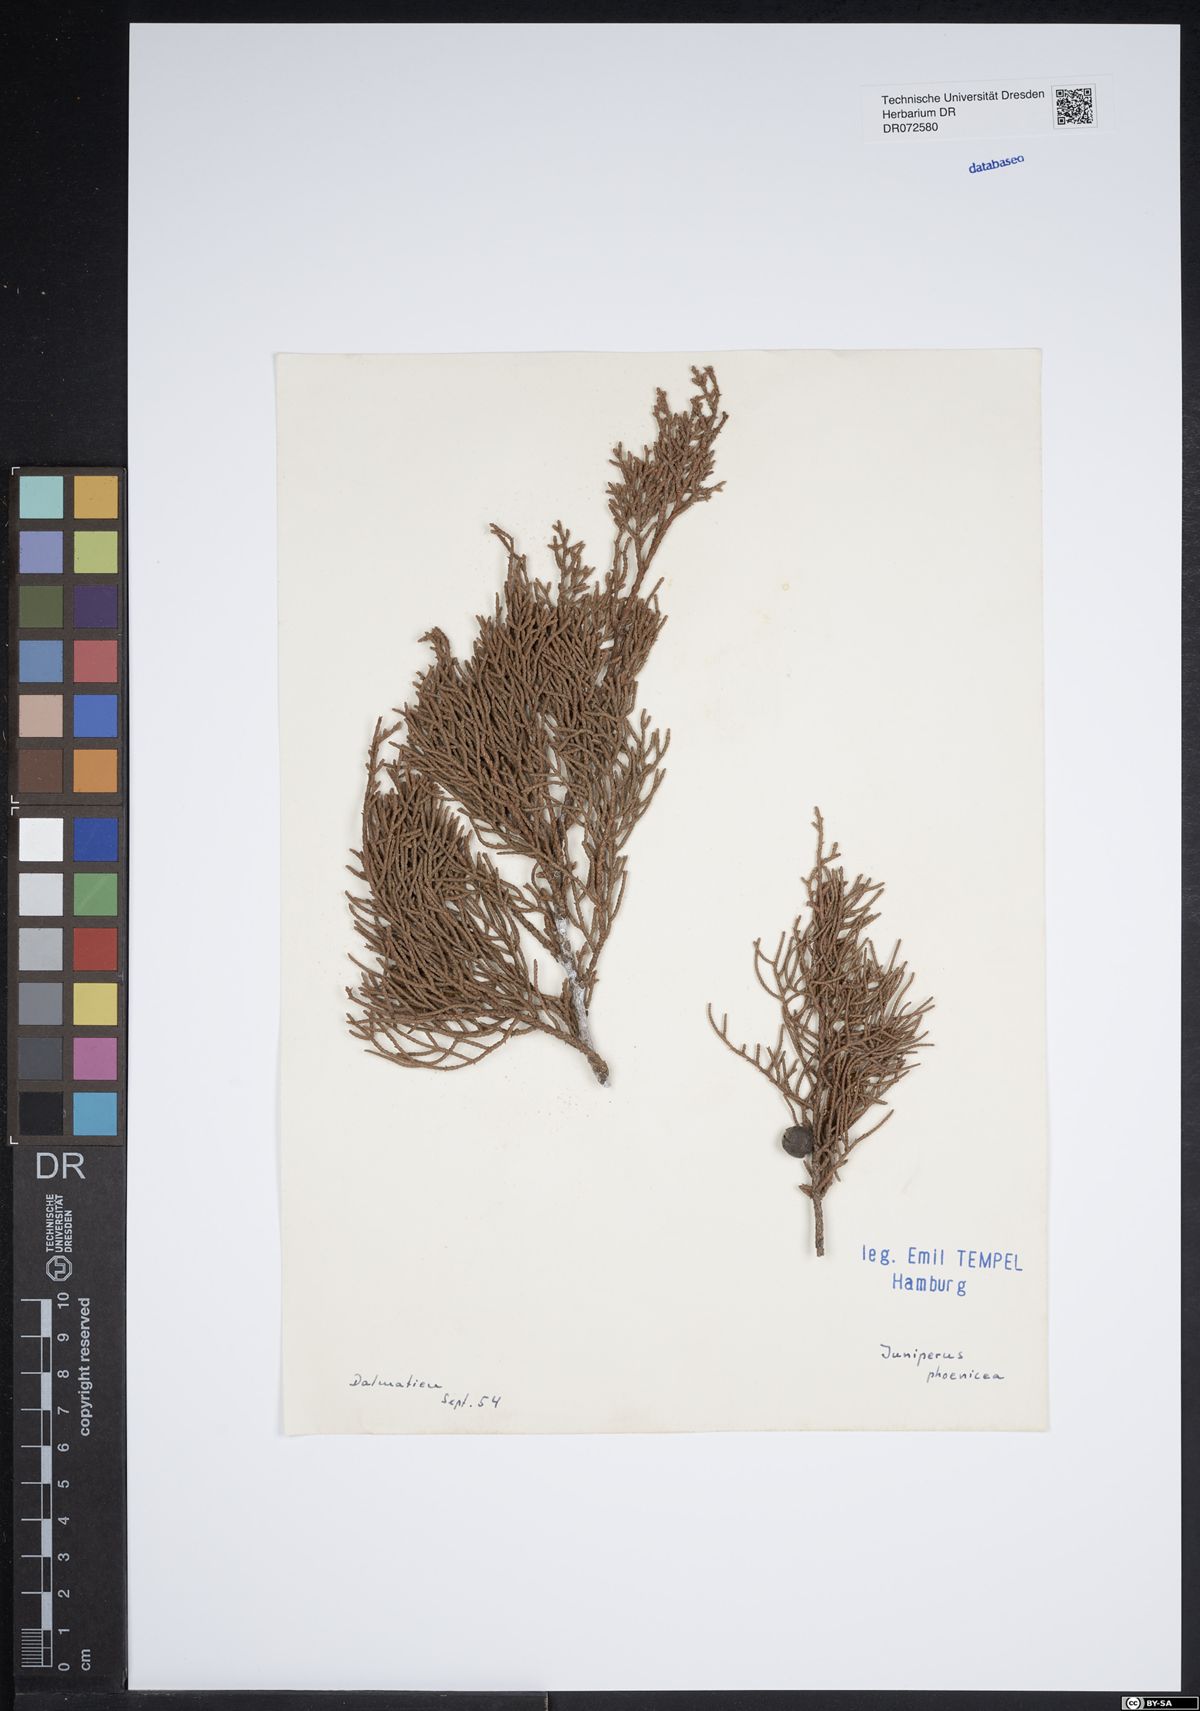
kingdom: Plantae
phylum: Tracheophyta
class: Pinopsida
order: Pinales
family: Cupressaceae
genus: Juniperus
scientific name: Juniperus phoenicea
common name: Phoenician juniper
